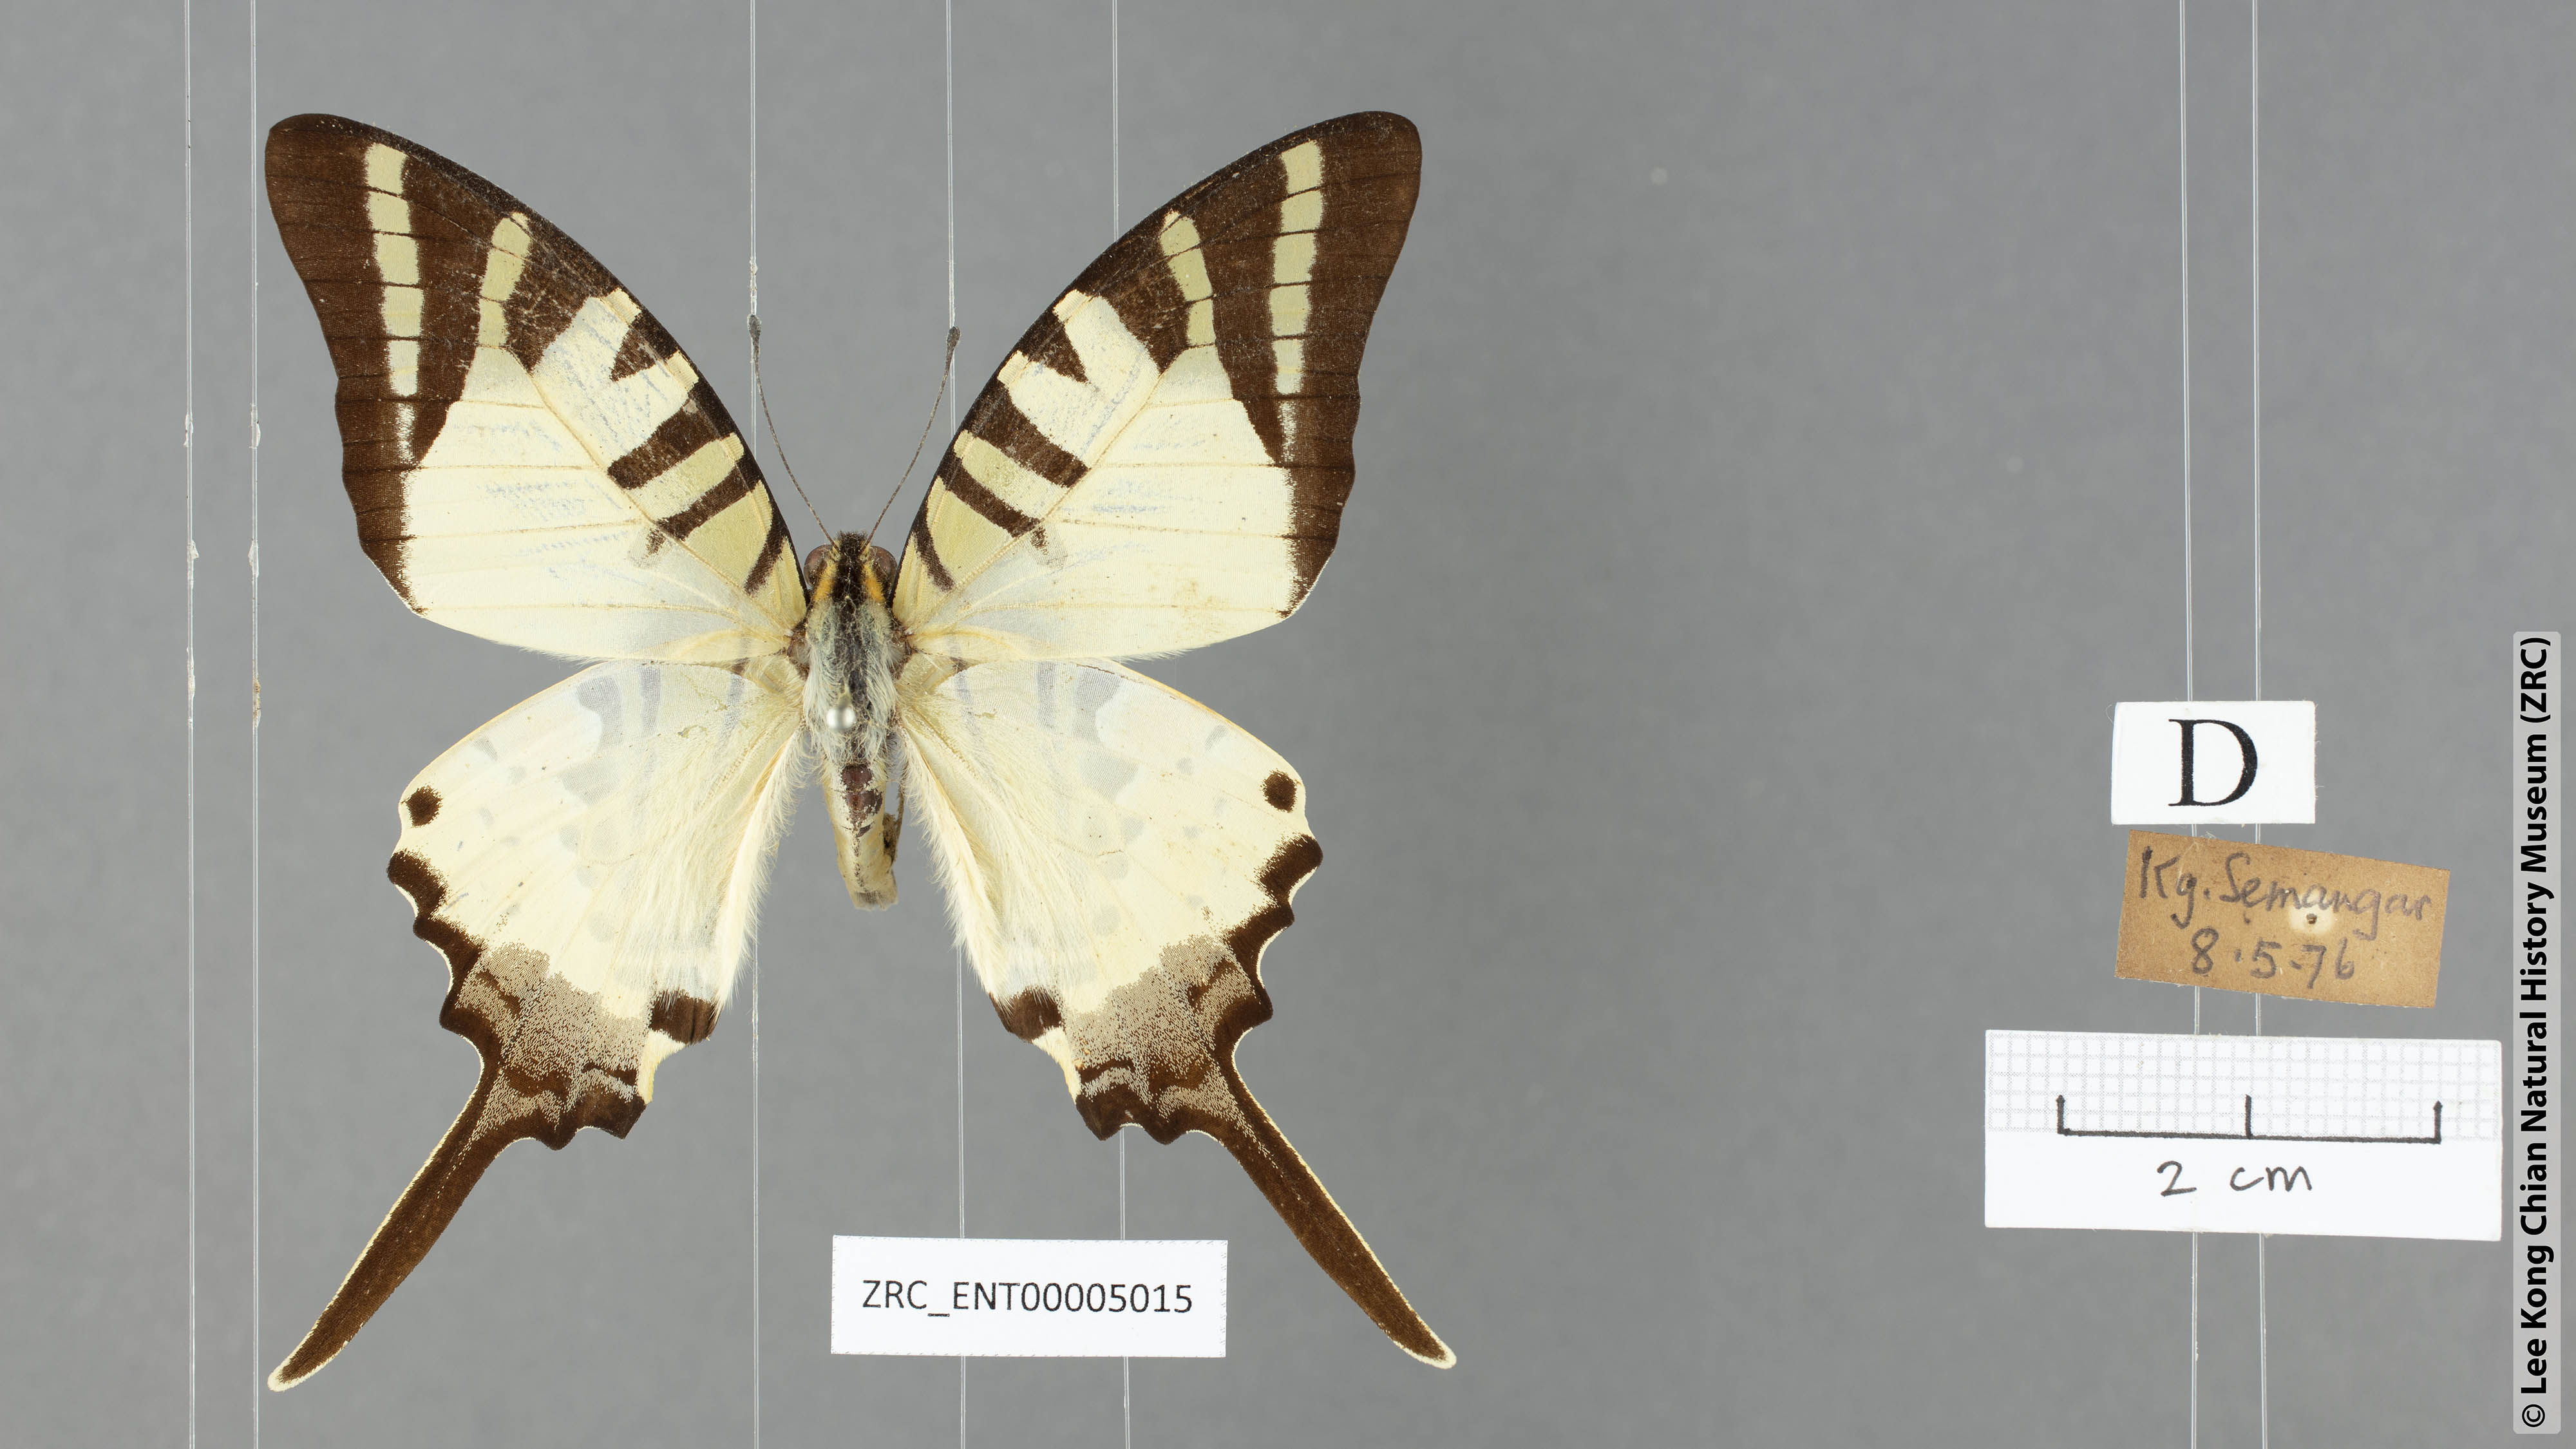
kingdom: Animalia
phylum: Arthropoda
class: Insecta
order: Lepidoptera
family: Papilionidae
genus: Graphium
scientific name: Graphium antiphates
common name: Fivebar swordtail
